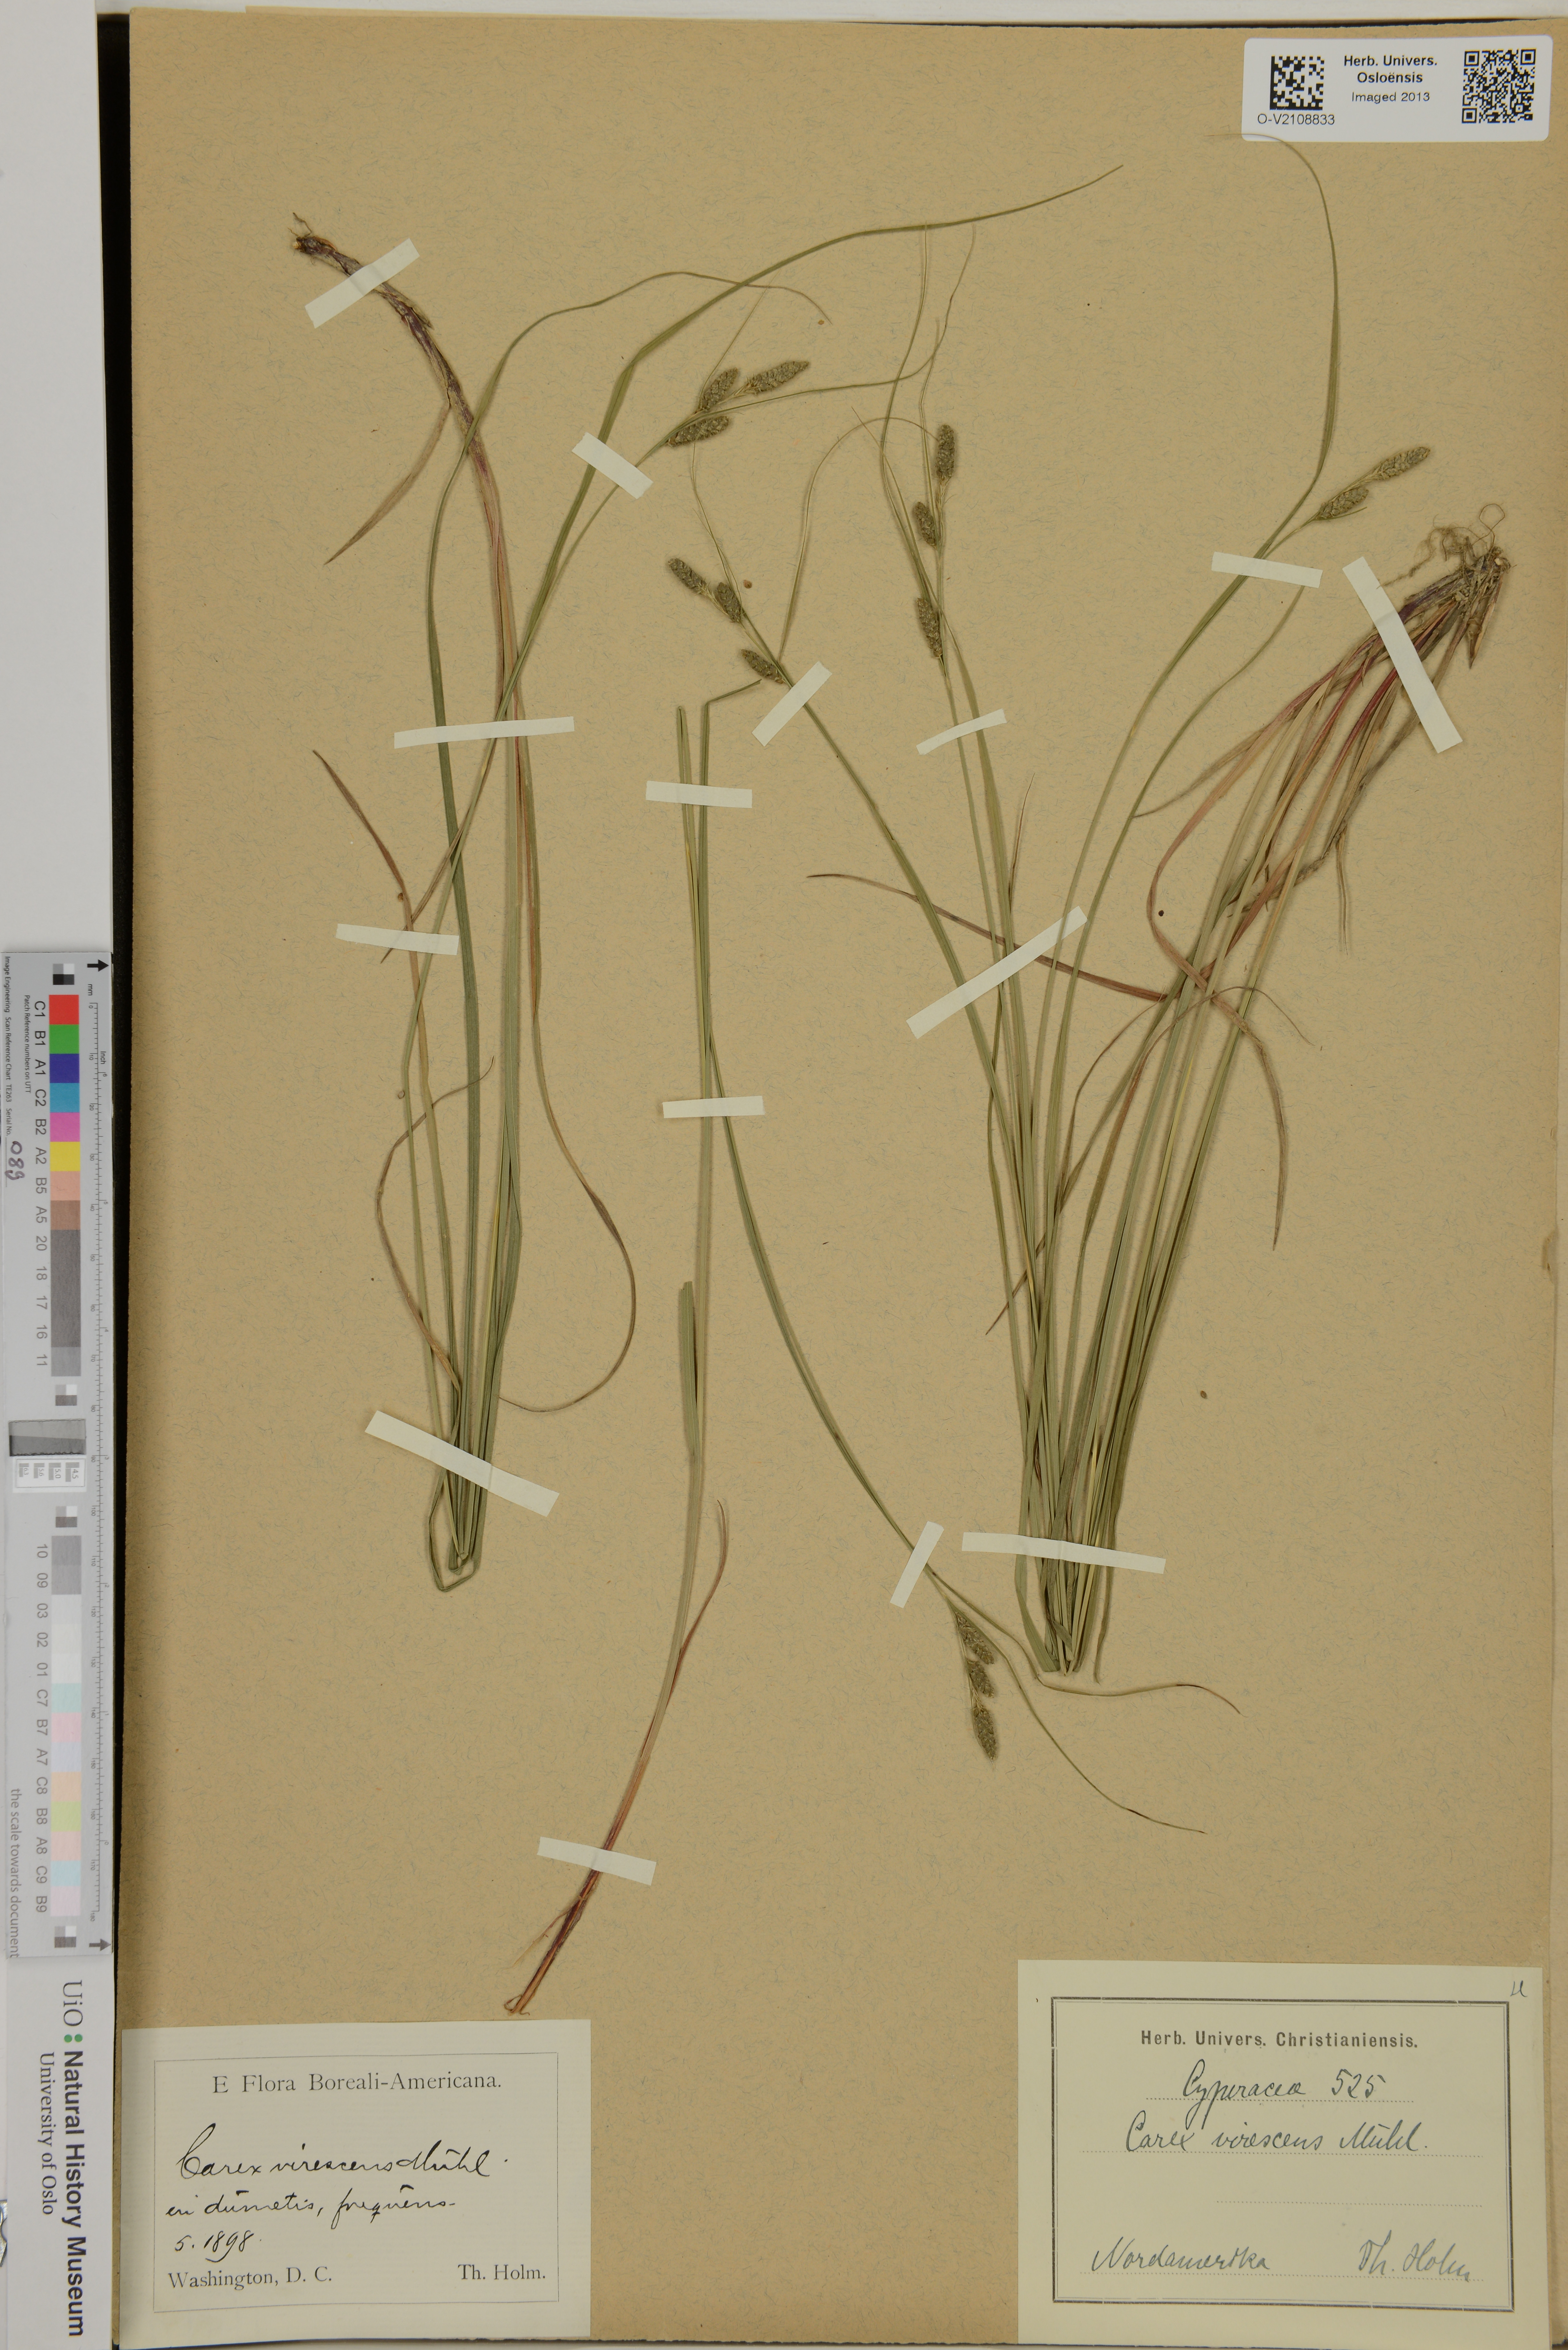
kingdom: Plantae
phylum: Tracheophyta
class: Liliopsida
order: Poales
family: Cyperaceae
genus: Carex
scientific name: Carex virescens
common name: Ribbed sedge
